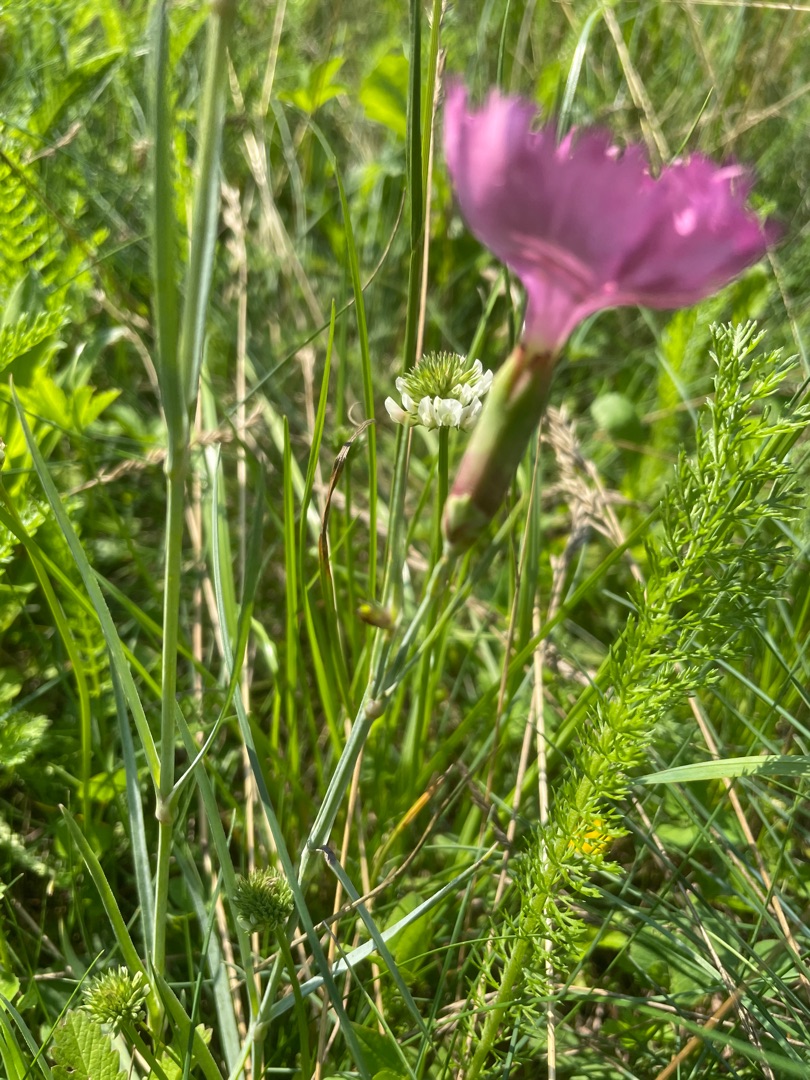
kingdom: Plantae
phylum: Tracheophyta
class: Magnoliopsida
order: Caryophyllales
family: Caryophyllaceae
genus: Dianthus
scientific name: Dianthus plumarius
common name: Fjernellike
